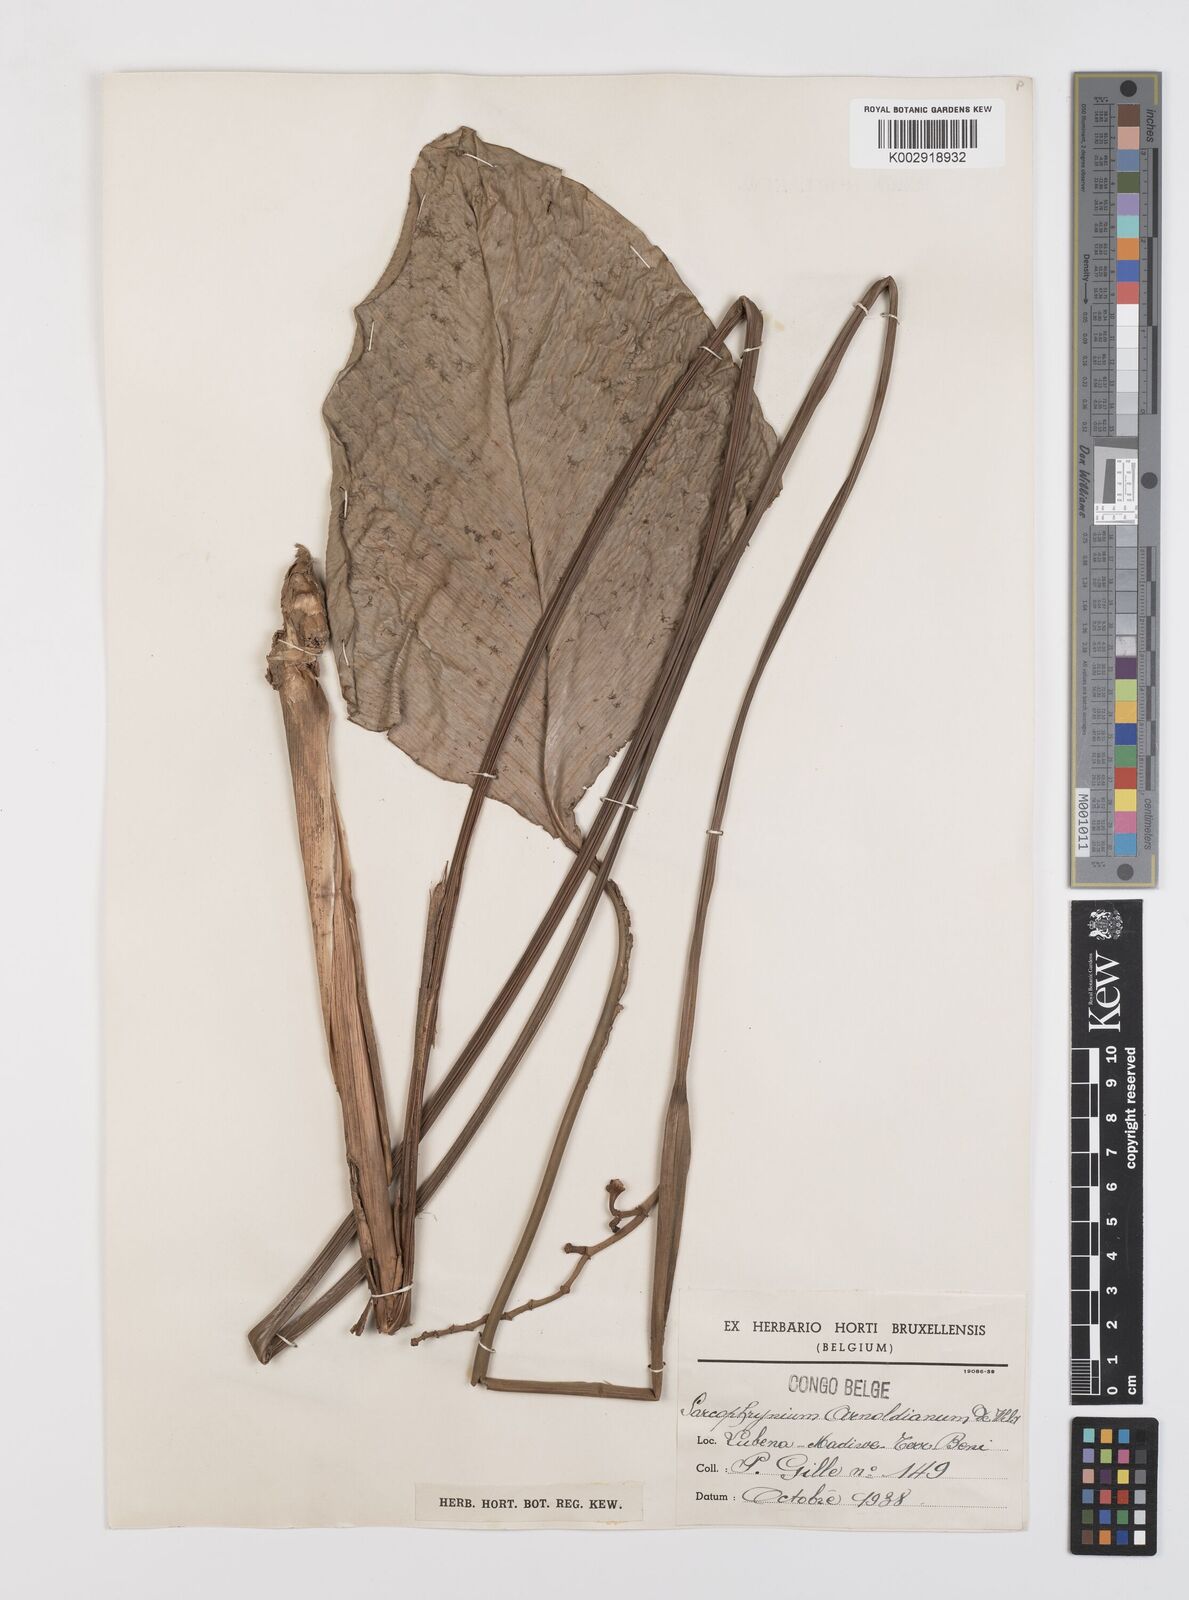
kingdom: Plantae
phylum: Tracheophyta
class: Liliopsida
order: Zingiberales
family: Marantaceae
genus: Megaphrynium
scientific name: Megaphrynium
